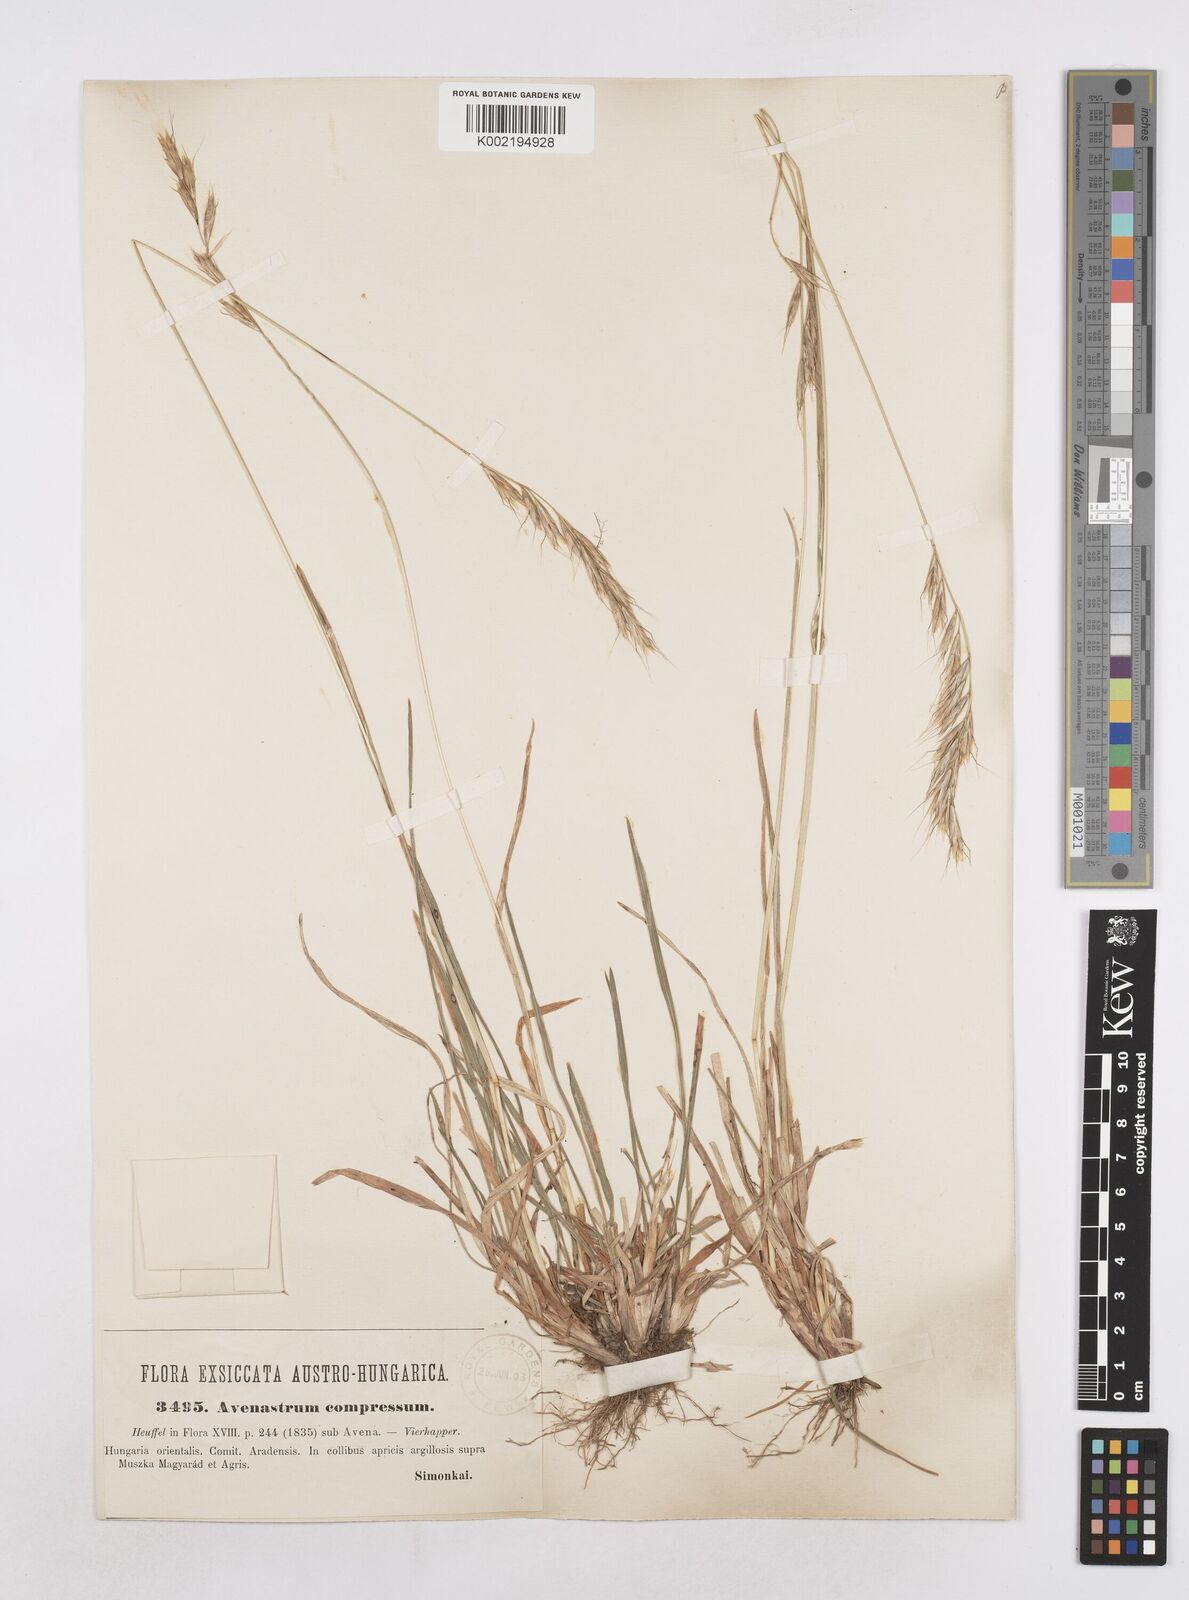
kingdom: Plantae
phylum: Tracheophyta
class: Liliopsida
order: Poales
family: Poaceae
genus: Helictochloa
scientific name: Helictochloa compressa
